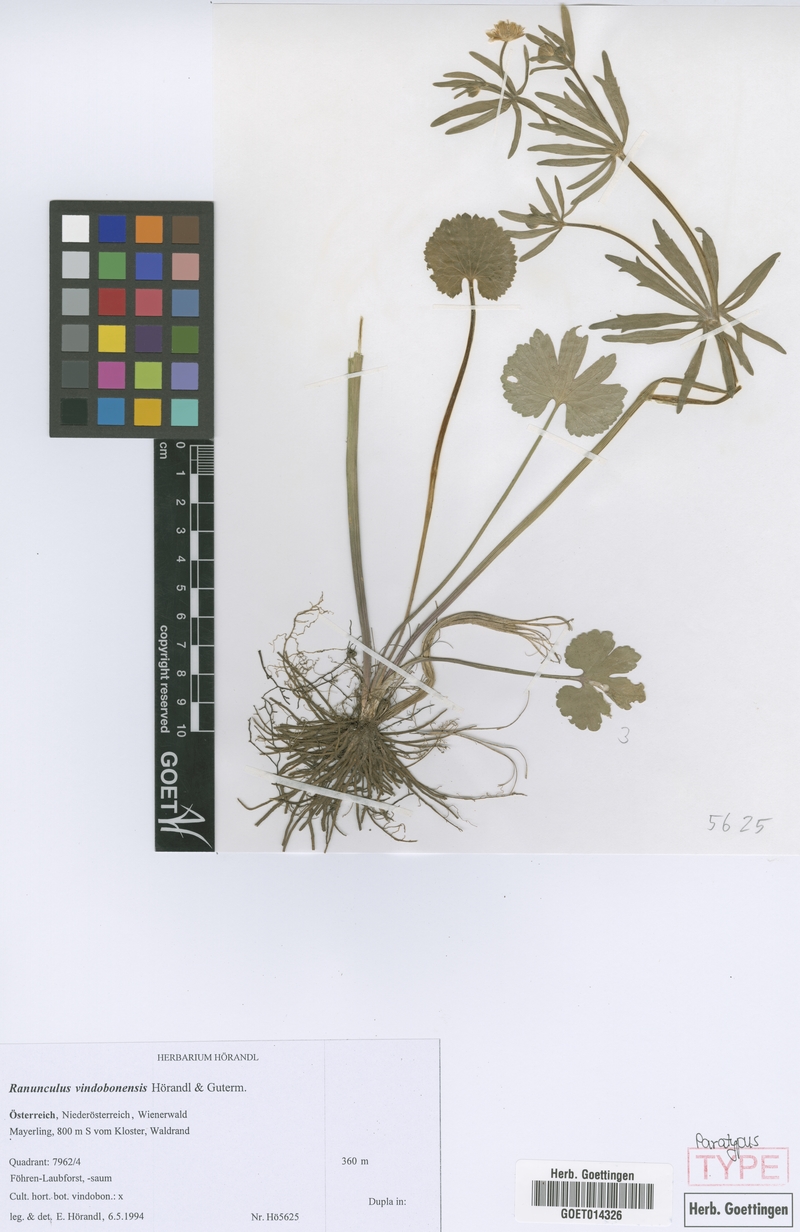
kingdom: Plantae
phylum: Tracheophyta
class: Magnoliopsida
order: Ranunculales
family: Ranunculaceae
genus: Ranunculus
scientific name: Ranunculus vindobonensis
